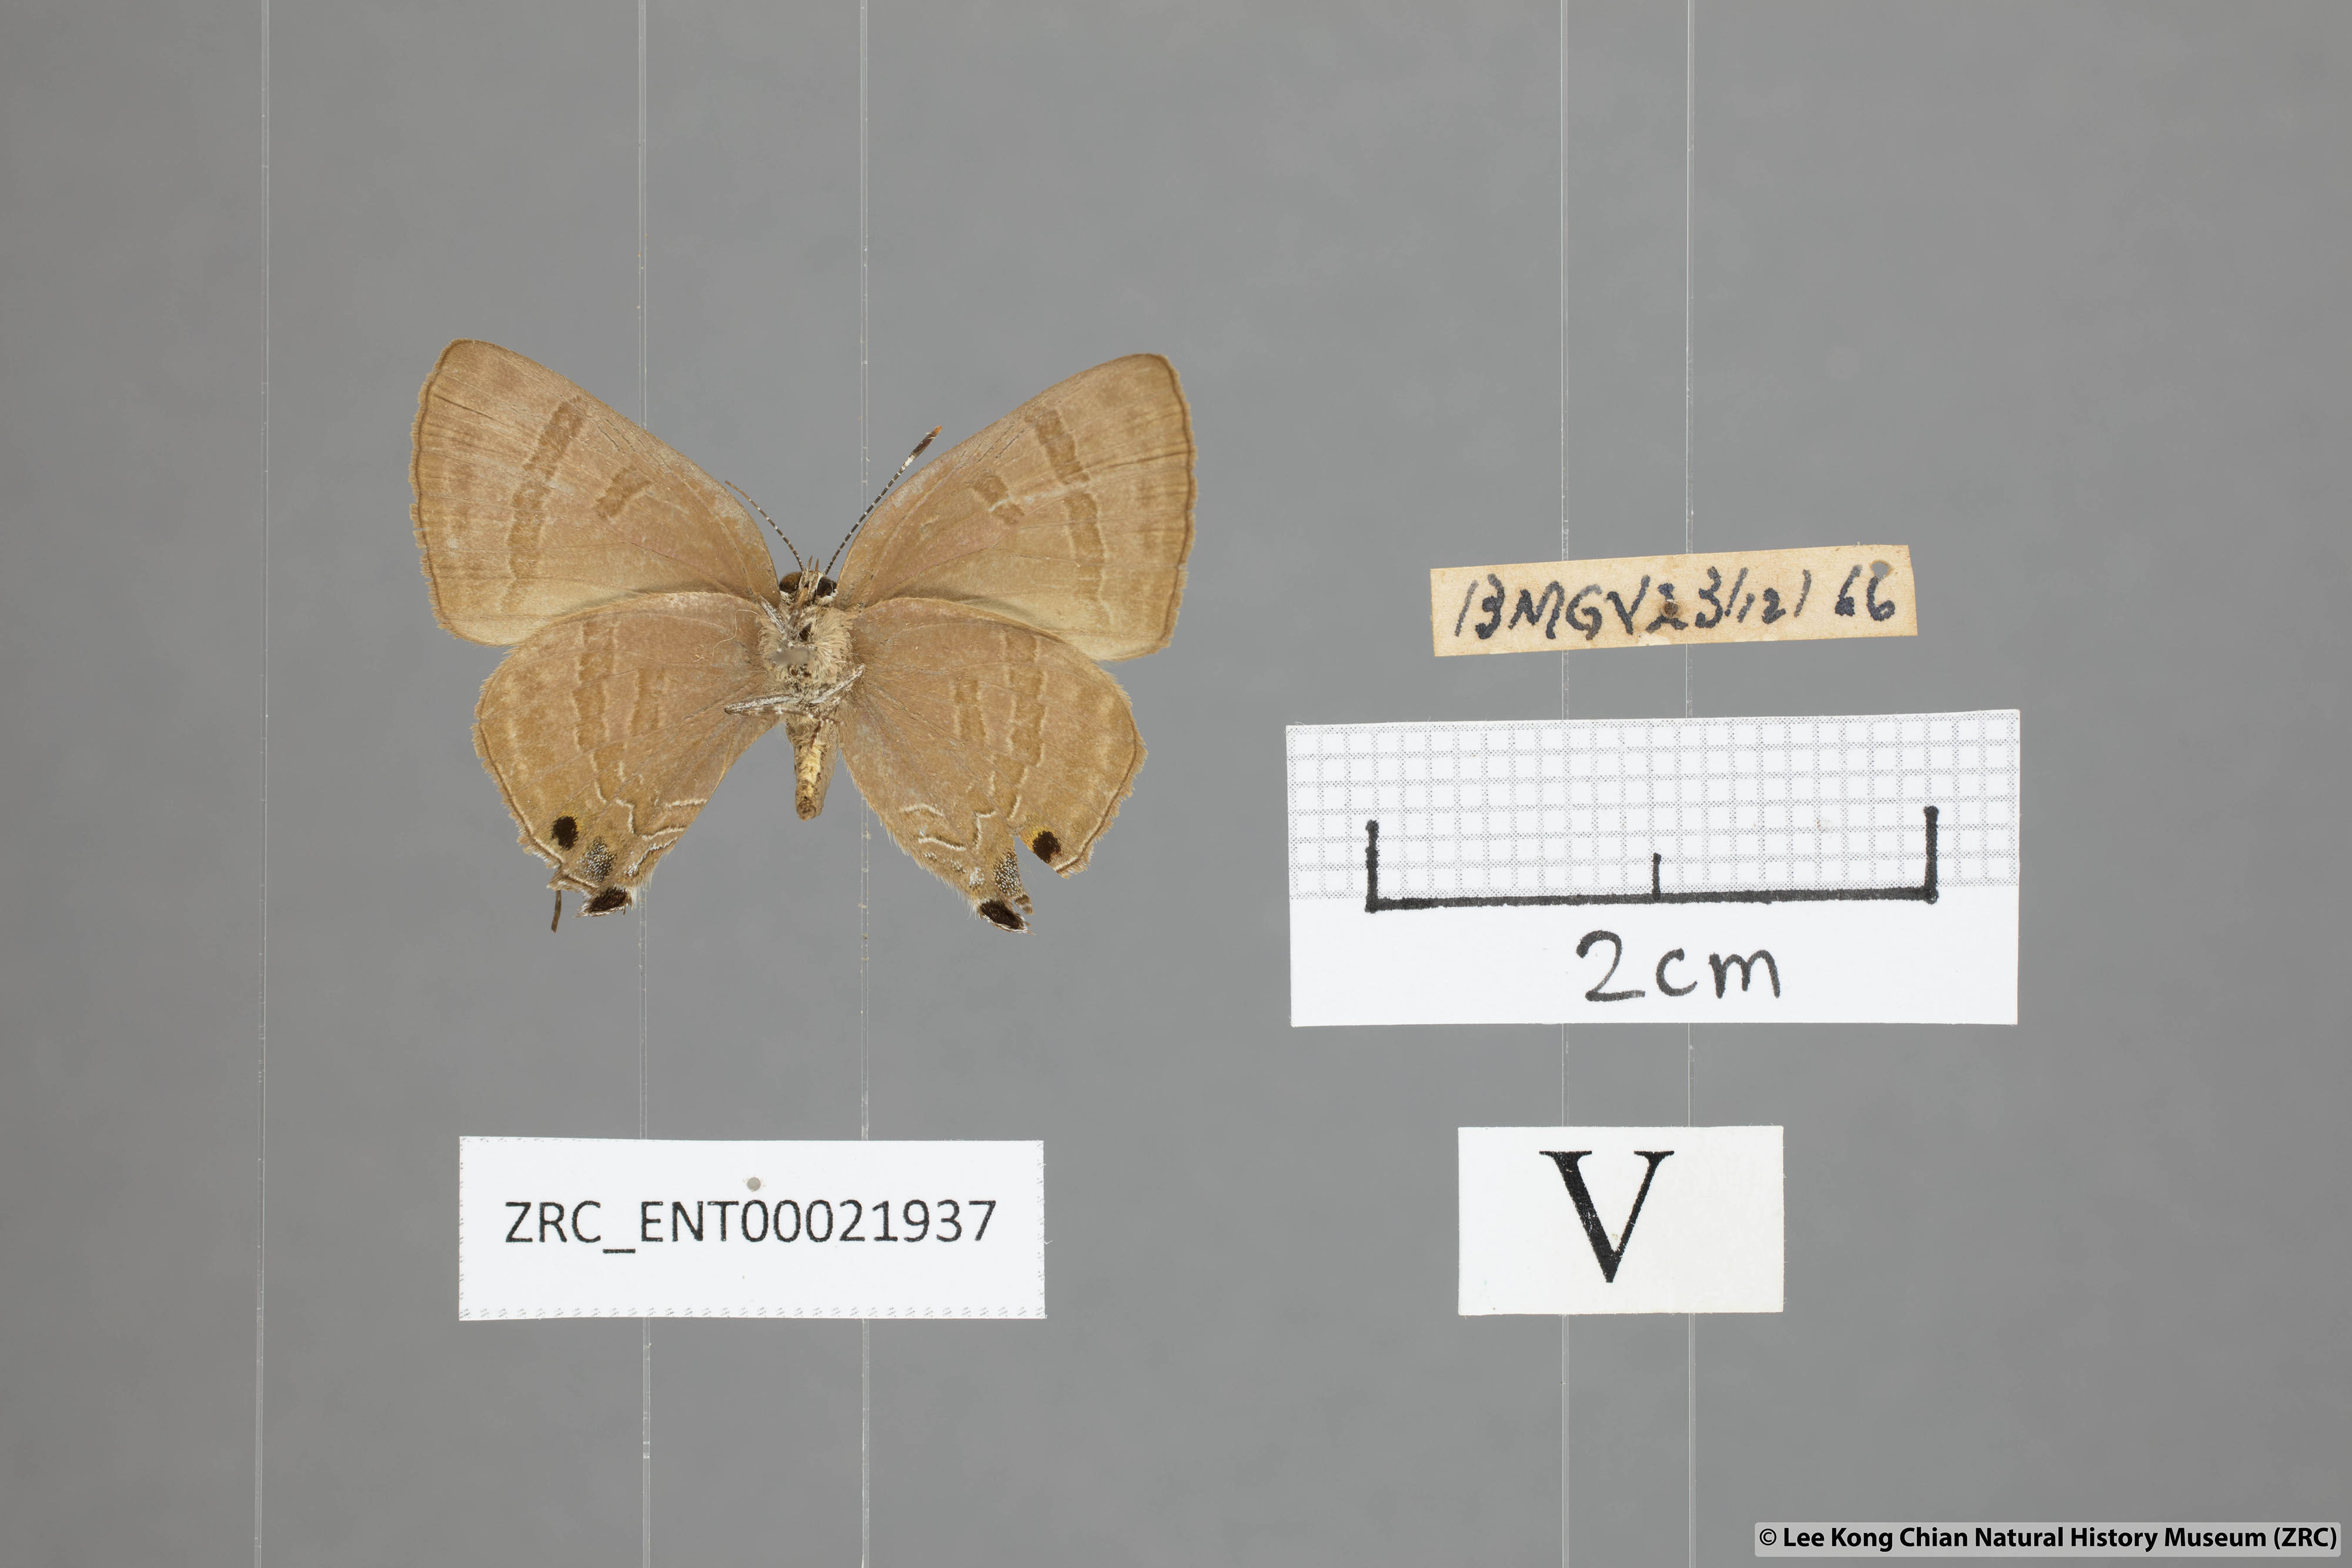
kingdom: Animalia
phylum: Arthropoda
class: Insecta
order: Lepidoptera
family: Lycaenidae
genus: Rapala
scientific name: Rapala varuna
